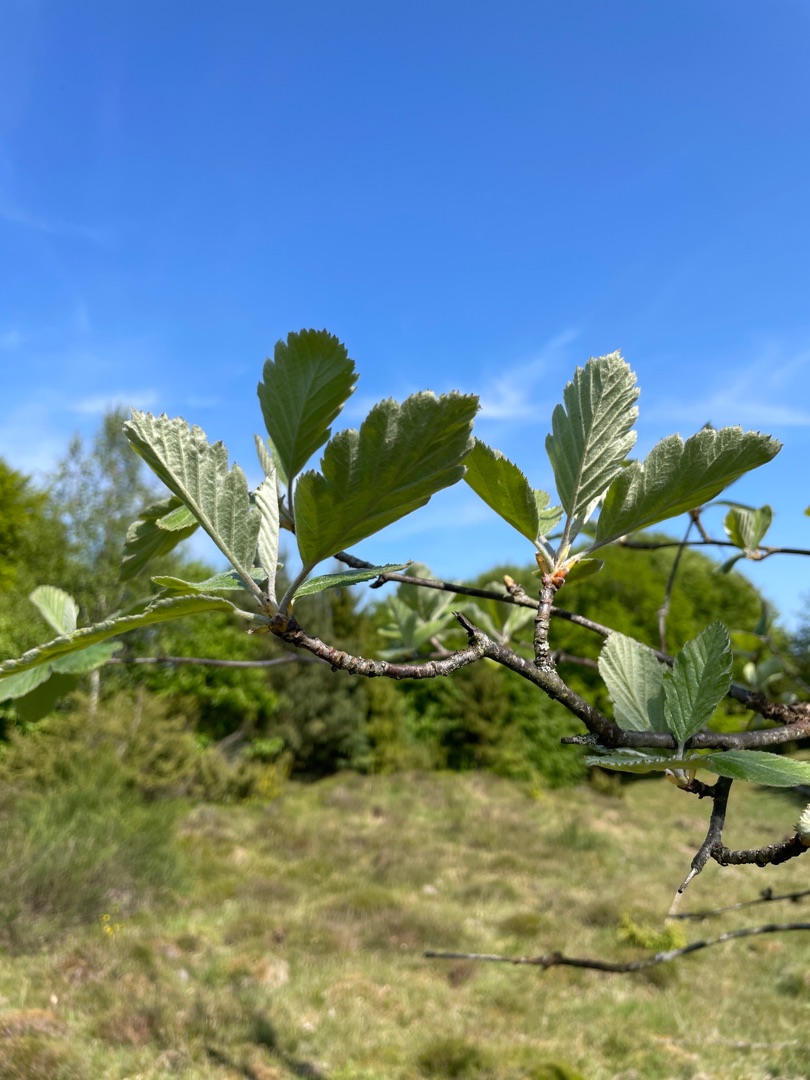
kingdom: Plantae
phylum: Tracheophyta
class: Magnoliopsida
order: Rosales
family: Rosaceae
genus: Scandosorbus
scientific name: Scandosorbus intermedia
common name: Selje-røn
